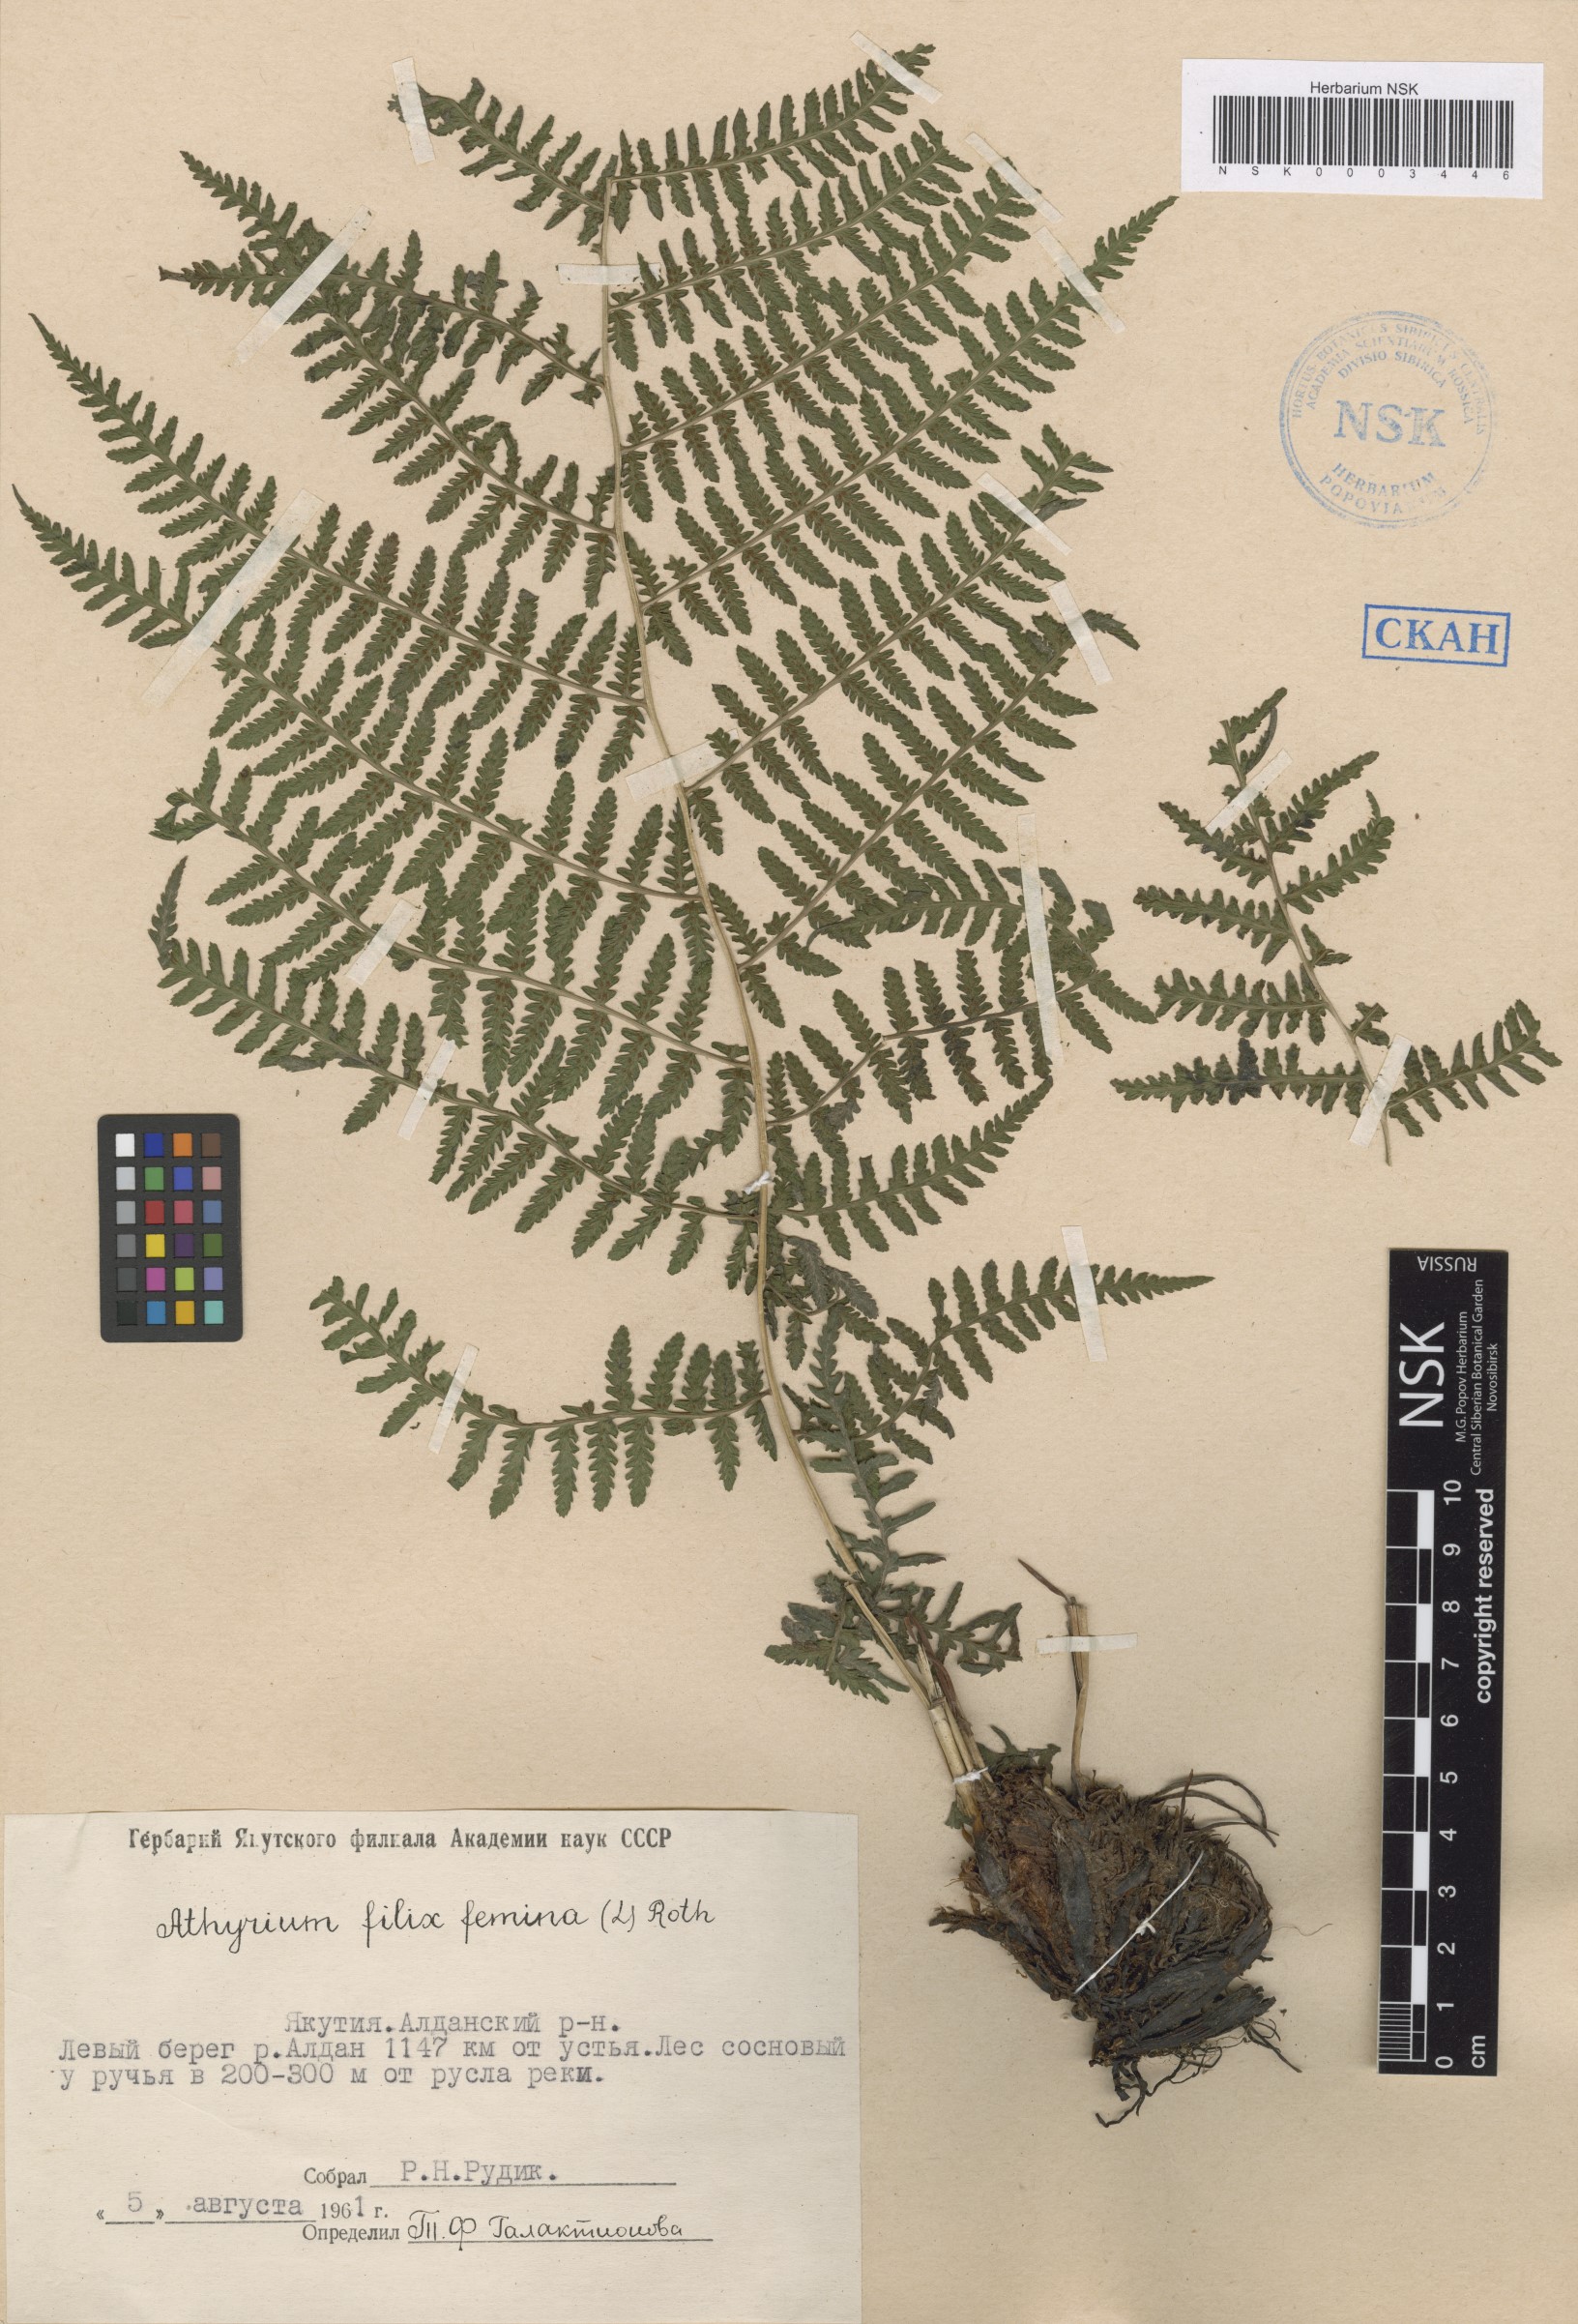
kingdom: Plantae
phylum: Tracheophyta
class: Polypodiopsida
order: Polypodiales
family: Athyriaceae
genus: Athyrium
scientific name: Athyrium filix-femina
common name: Lady fern
